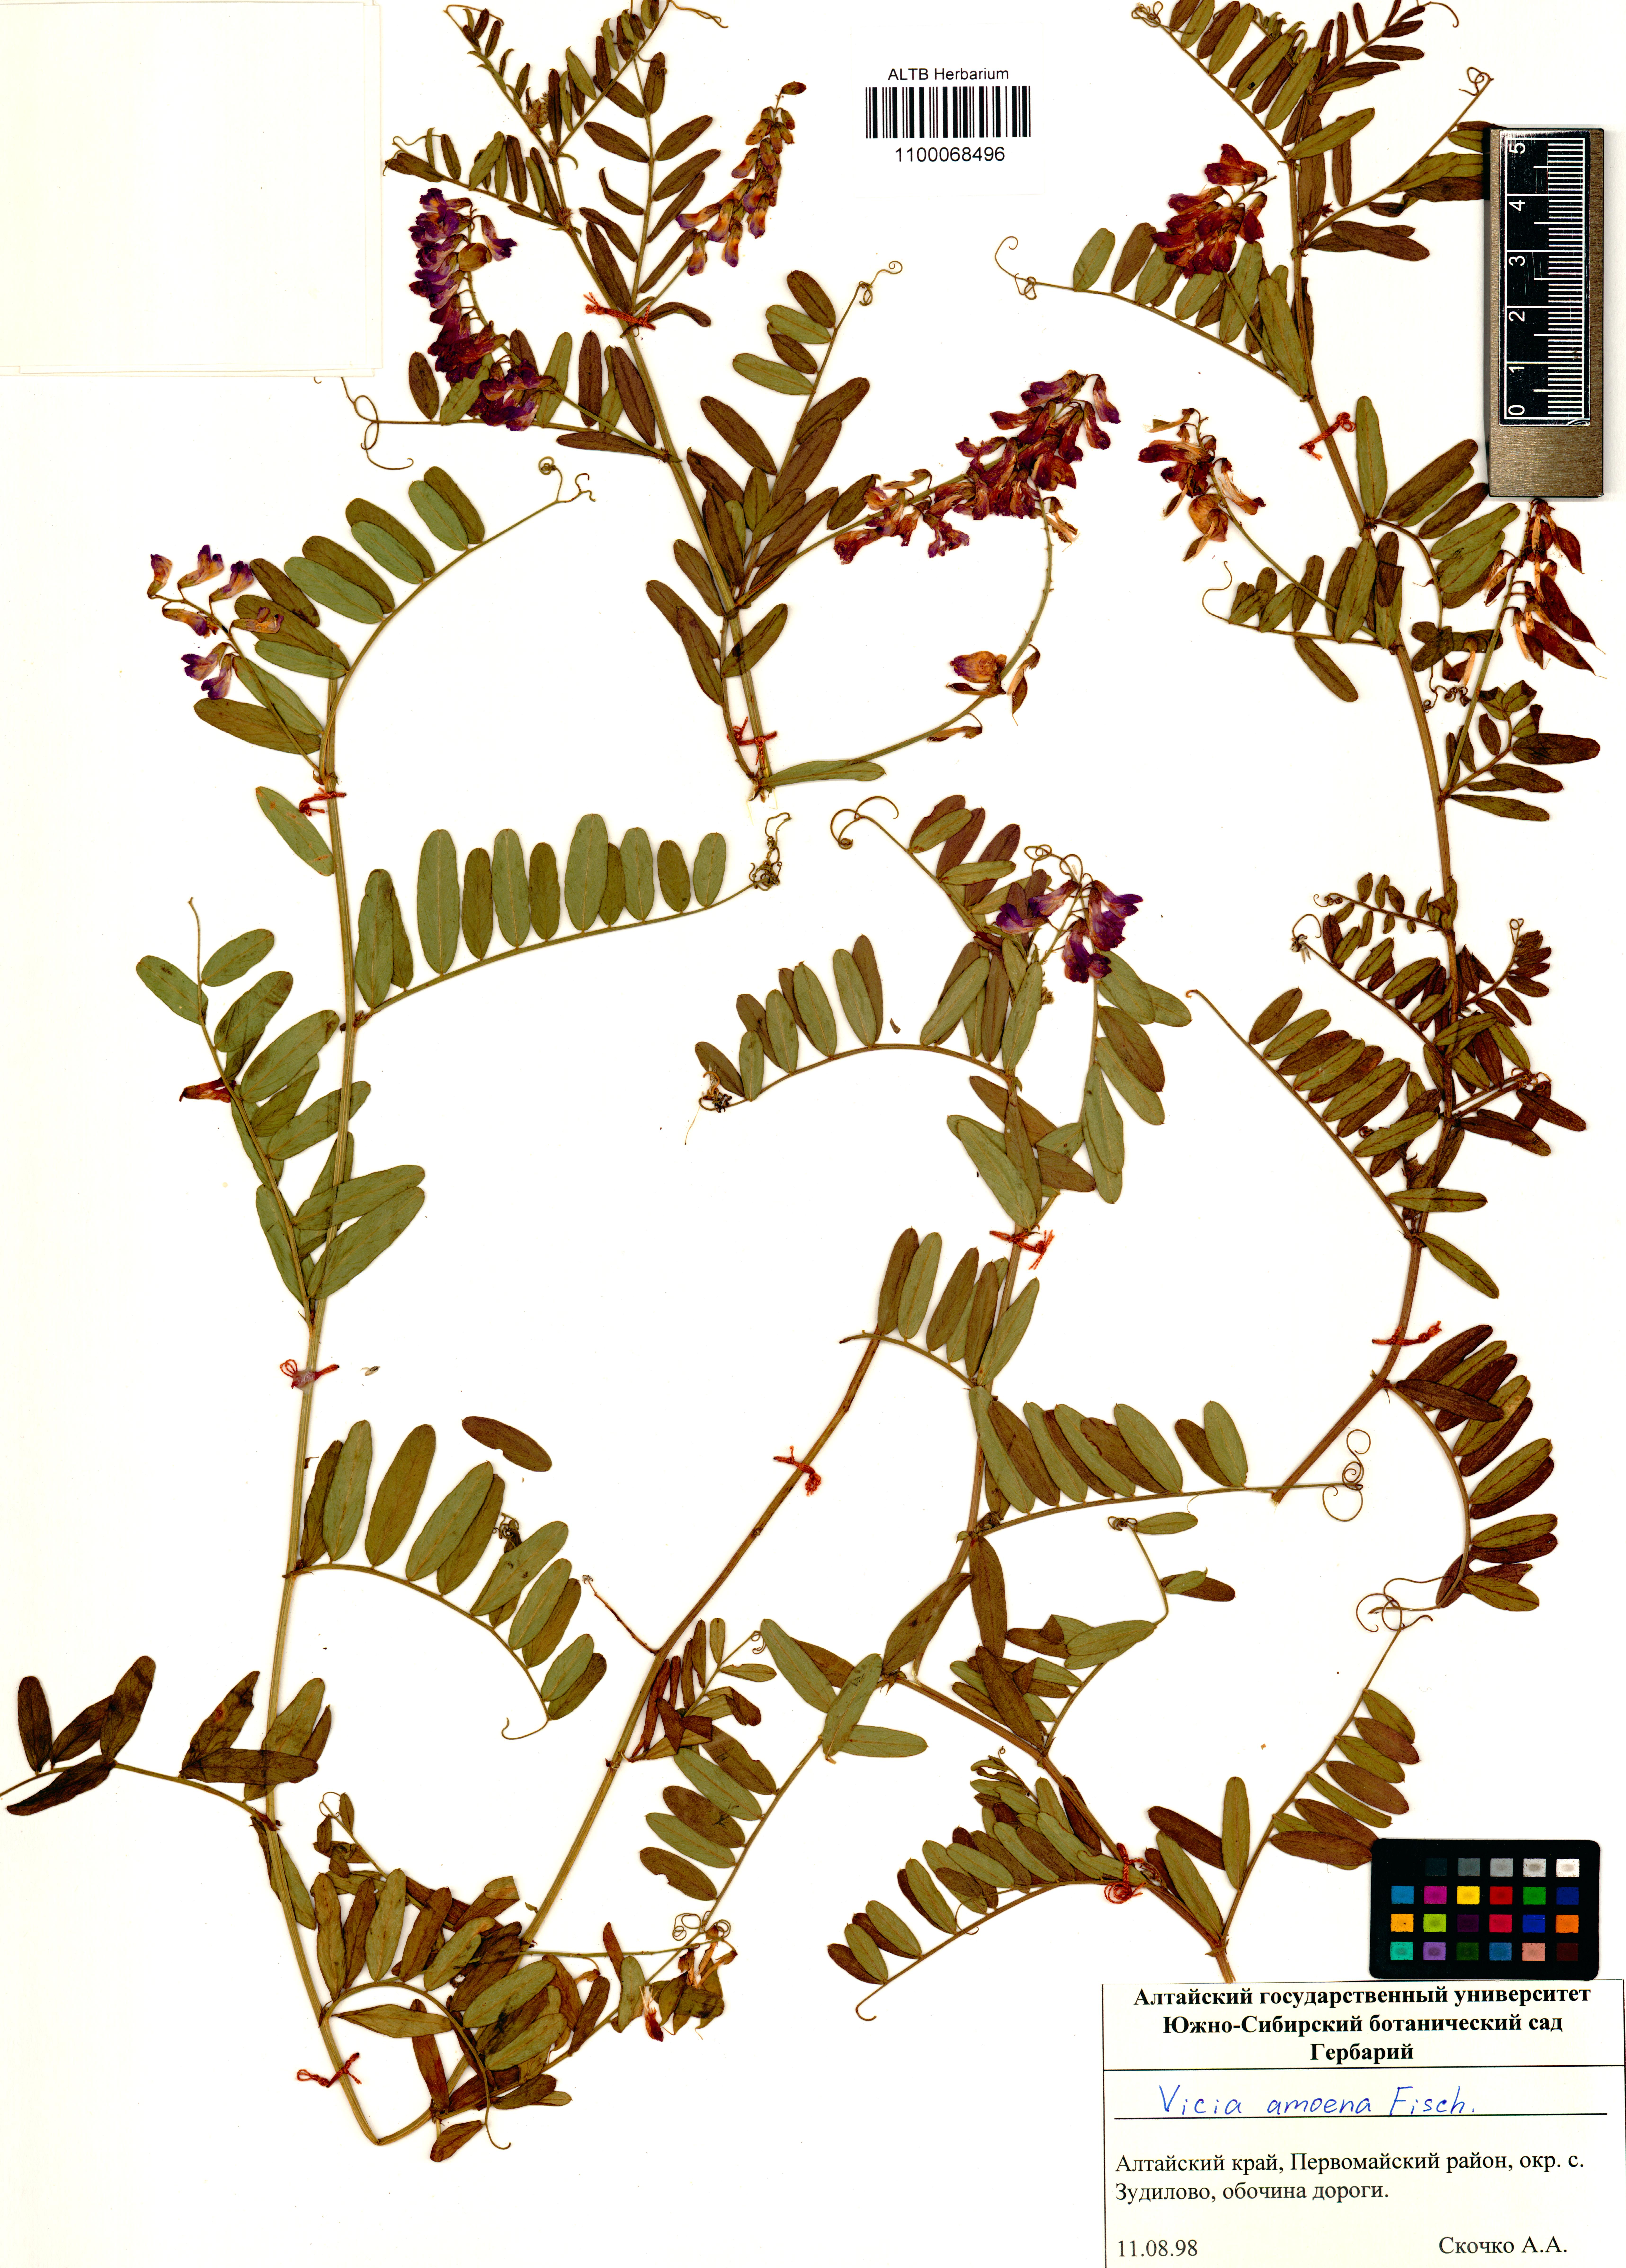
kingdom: Plantae
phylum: Tracheophyta
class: Magnoliopsida
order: Fabales
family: Fabaceae
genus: Vicia
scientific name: Vicia amoena
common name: Cheder ebs
